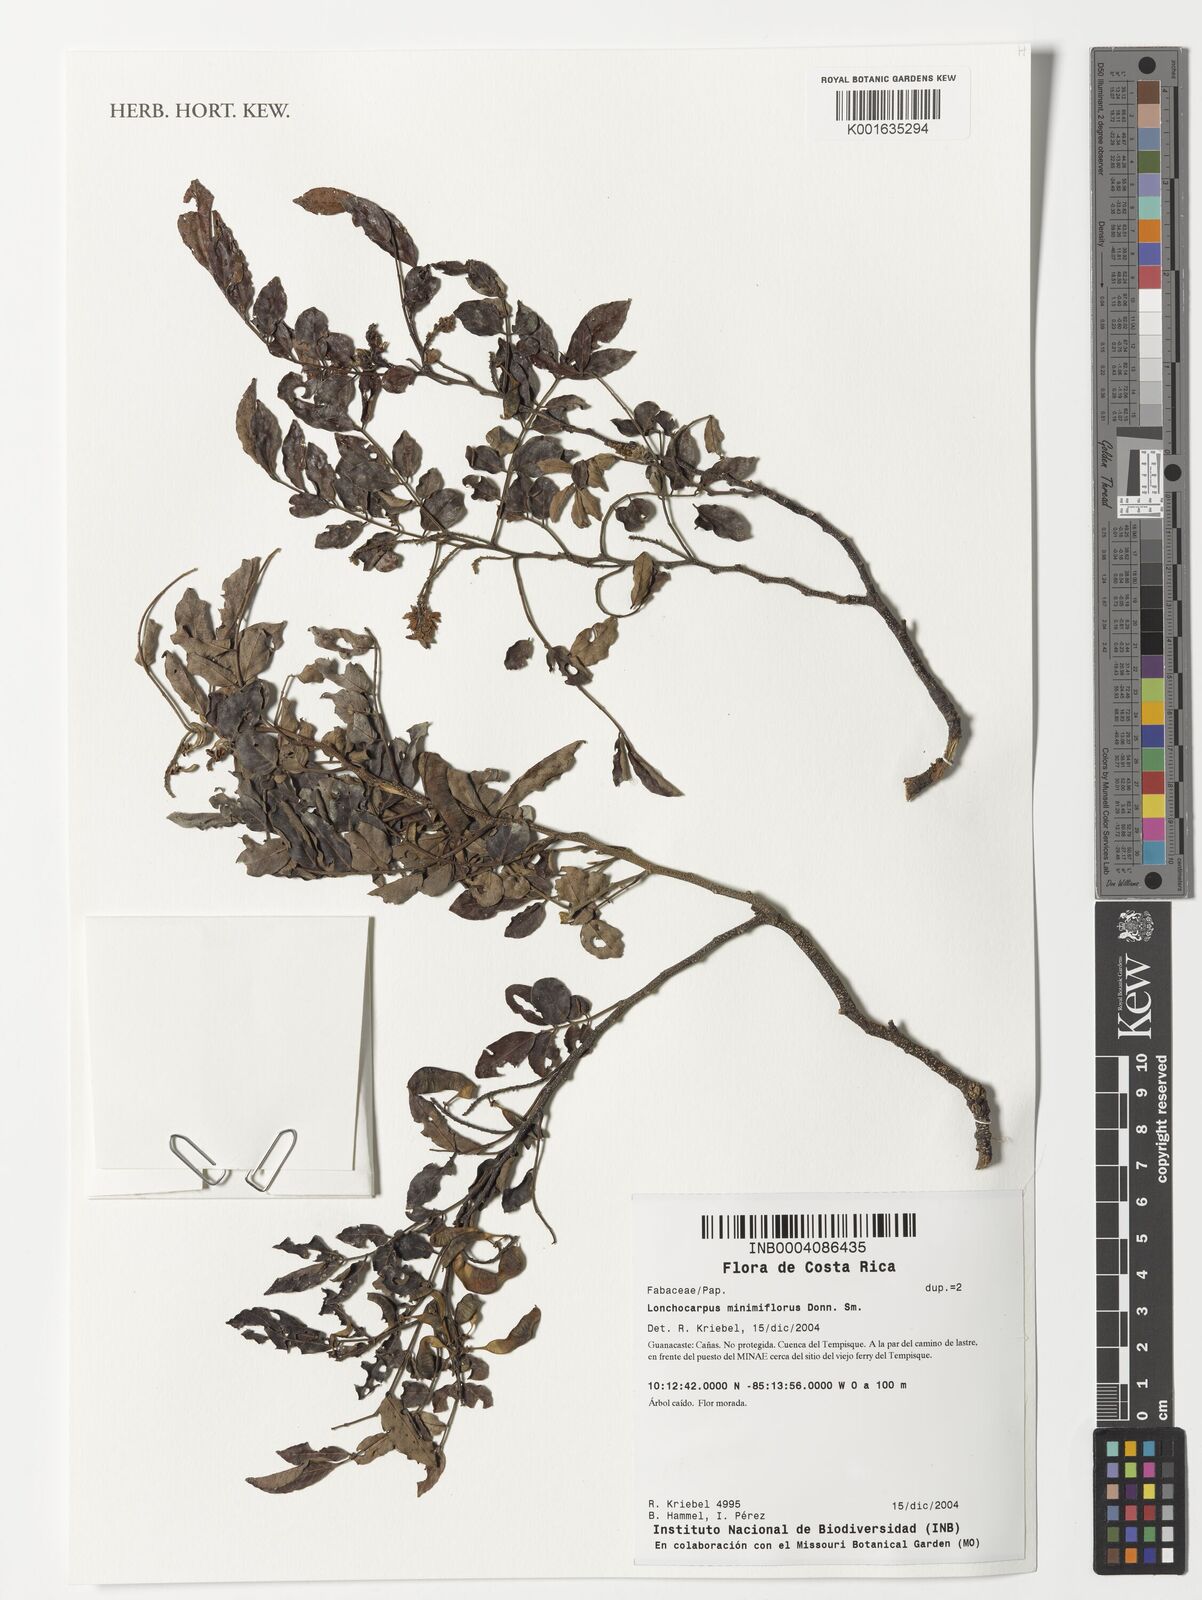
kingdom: Plantae
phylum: Tracheophyta
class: Magnoliopsida
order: Fabales
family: Fabaceae
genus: Lonchocarpus
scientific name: Lonchocarpus minimiflorus
